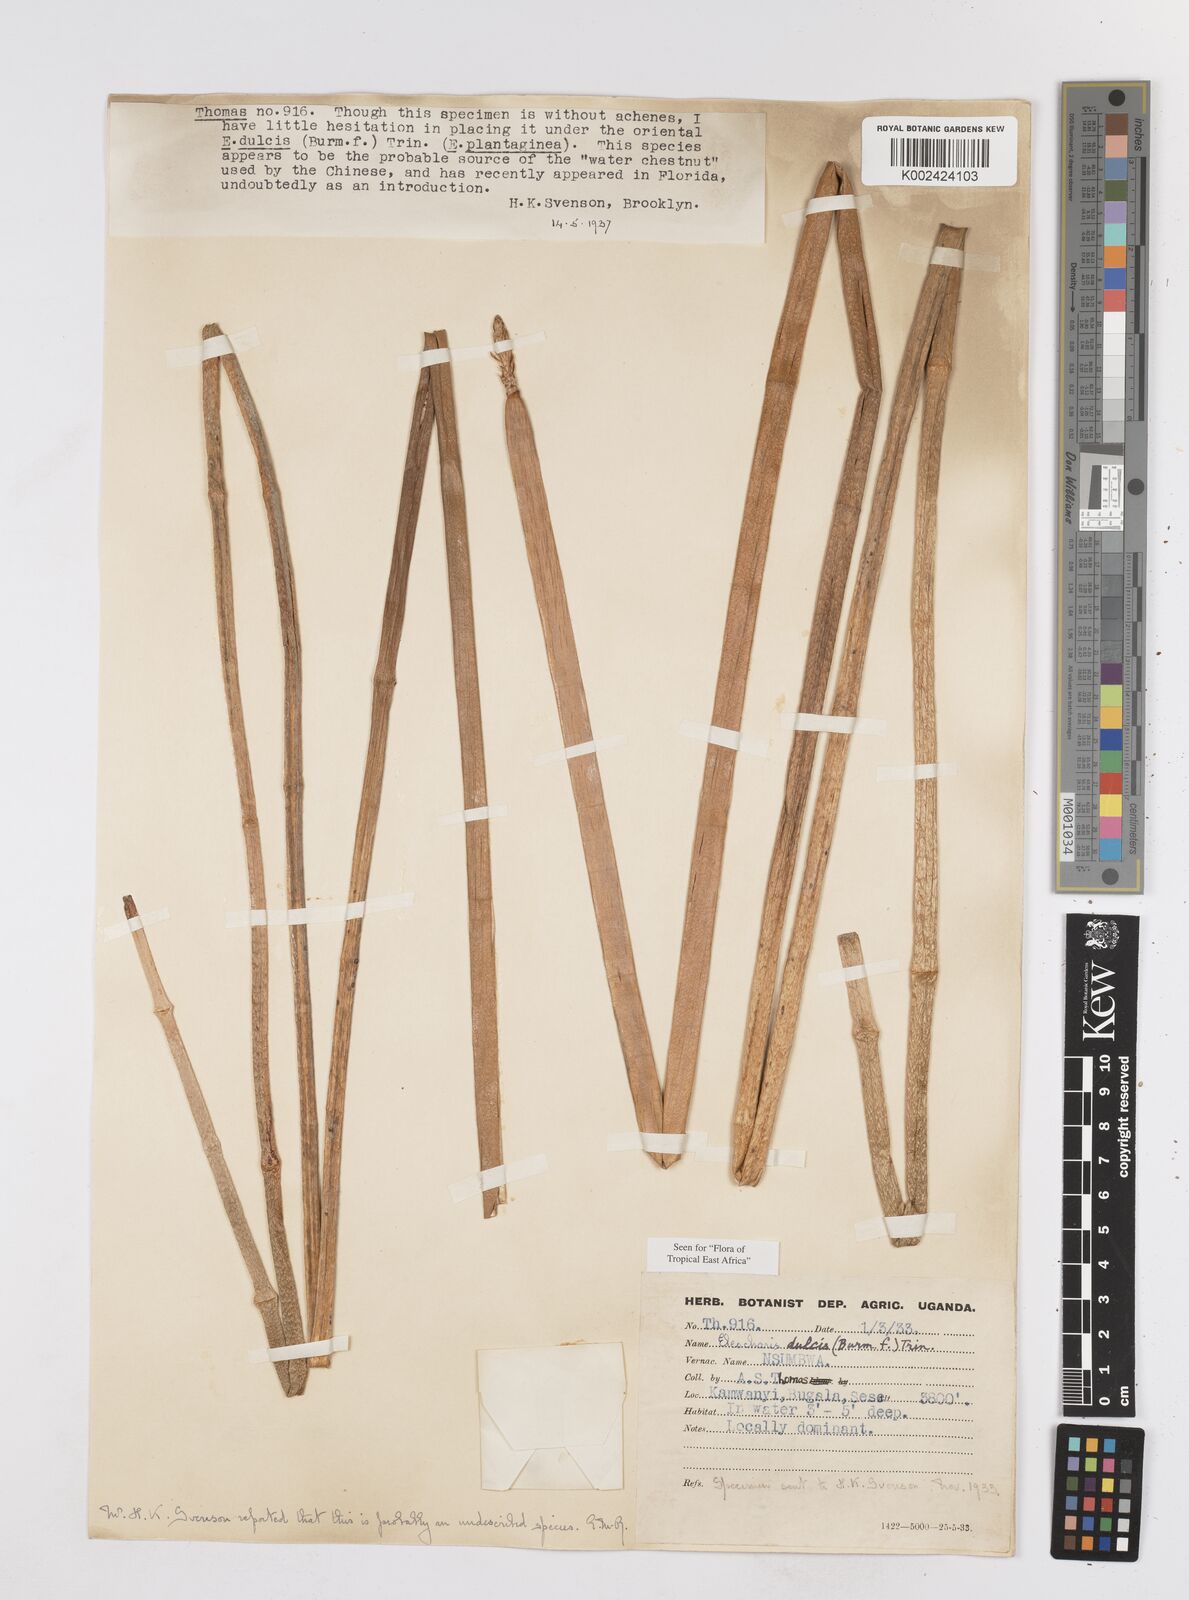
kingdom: Plantae
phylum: Tracheophyta
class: Liliopsida
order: Poales
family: Cyperaceae
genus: Eleocharis
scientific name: Eleocharis dulcis
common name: Chinese water chestnut
